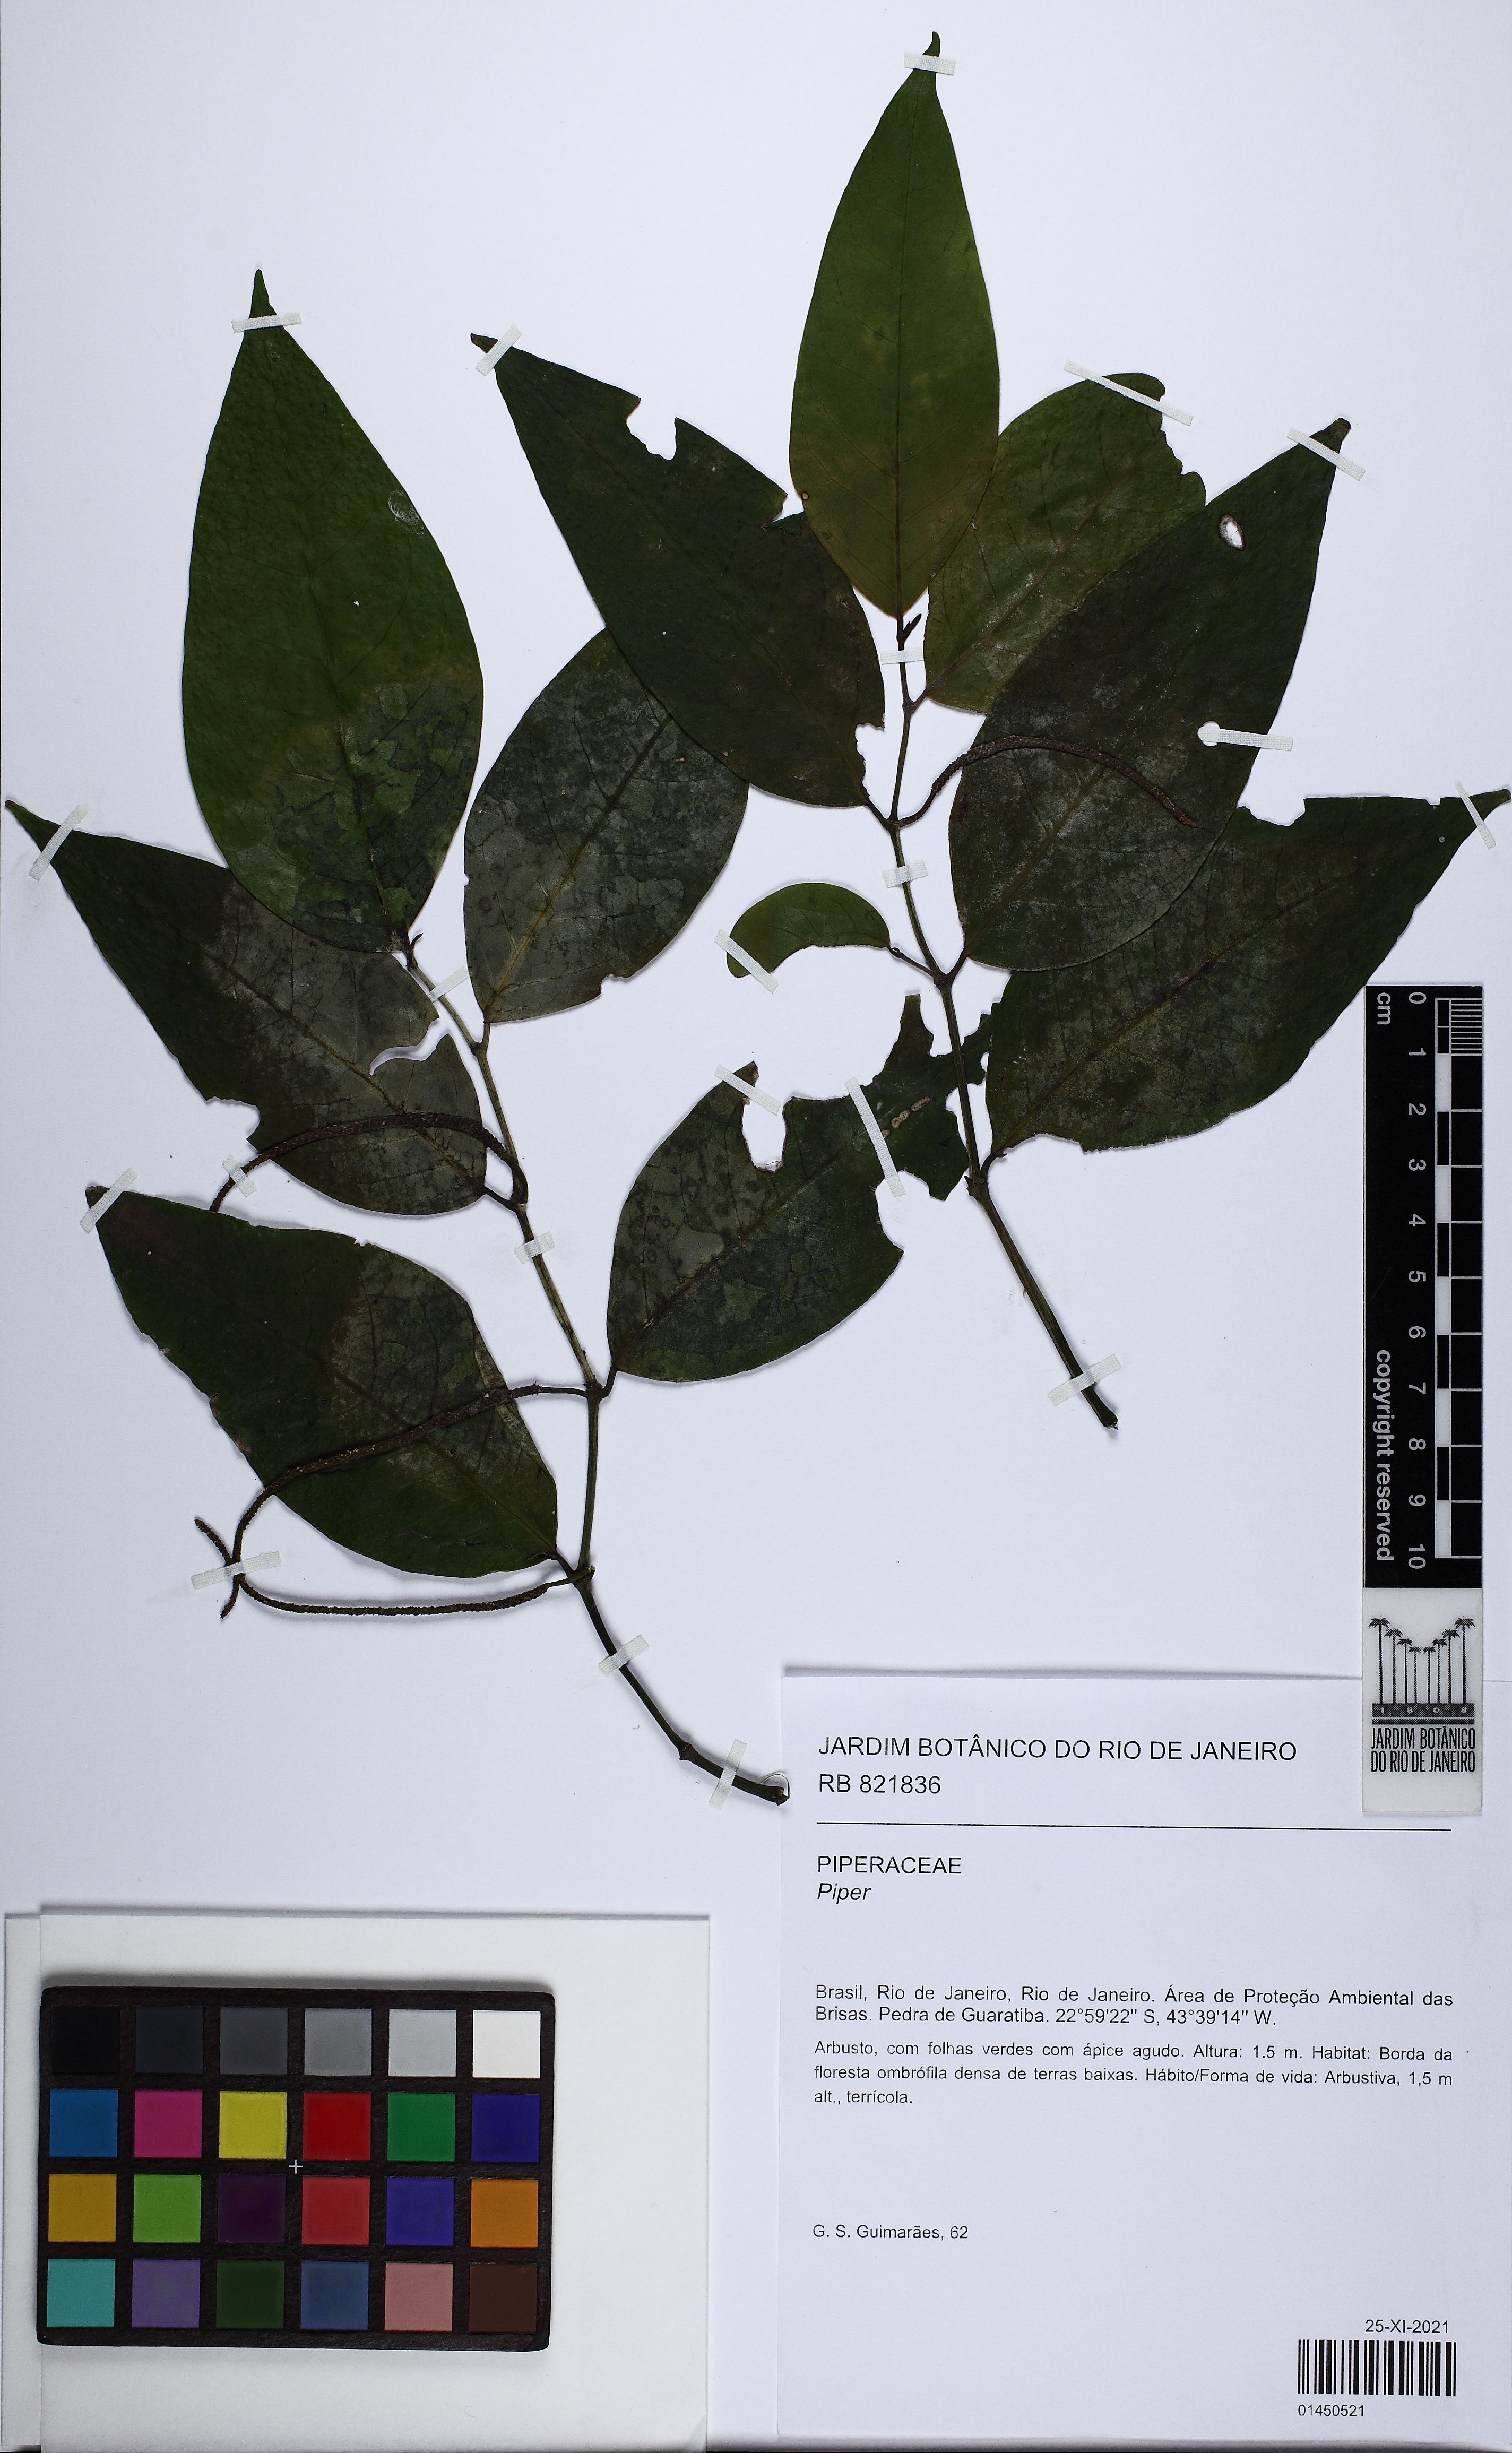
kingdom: Plantae
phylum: Tracheophyta
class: Magnoliopsida
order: Piperales
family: Piperaceae
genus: Piper
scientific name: Piper
